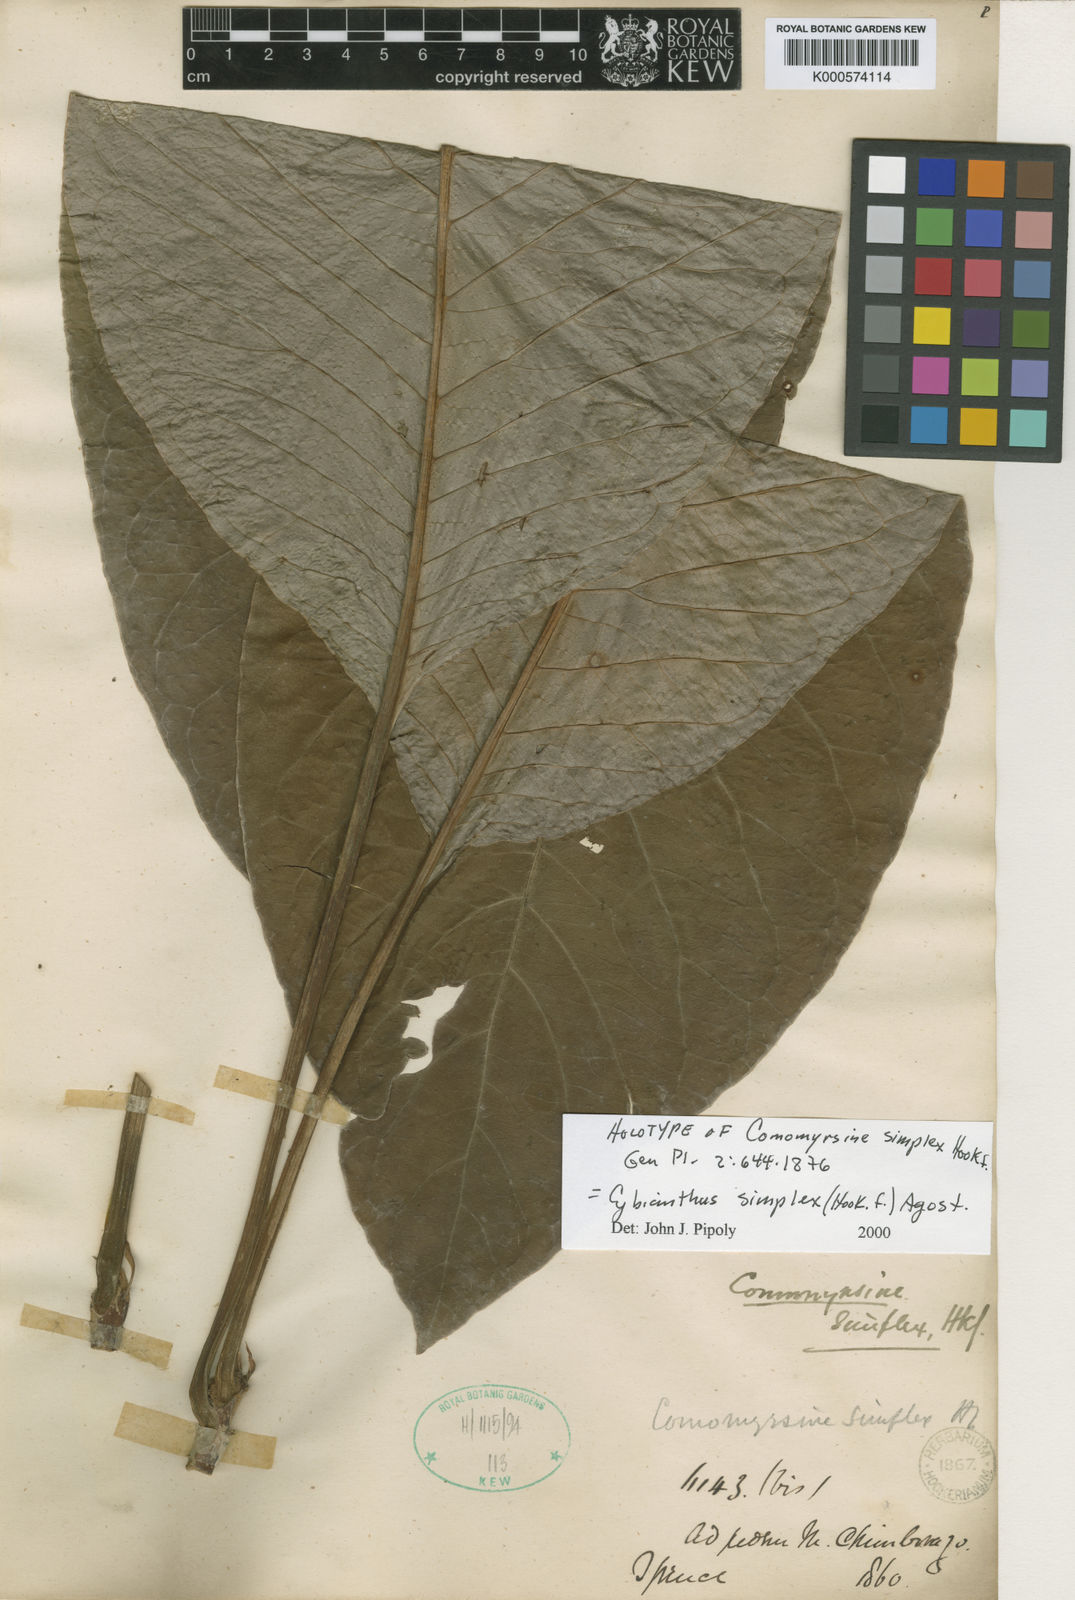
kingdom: Plantae
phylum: Tracheophyta
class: Magnoliopsida
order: Ericales
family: Primulaceae
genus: Cybianthus
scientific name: Cybianthus simplex
